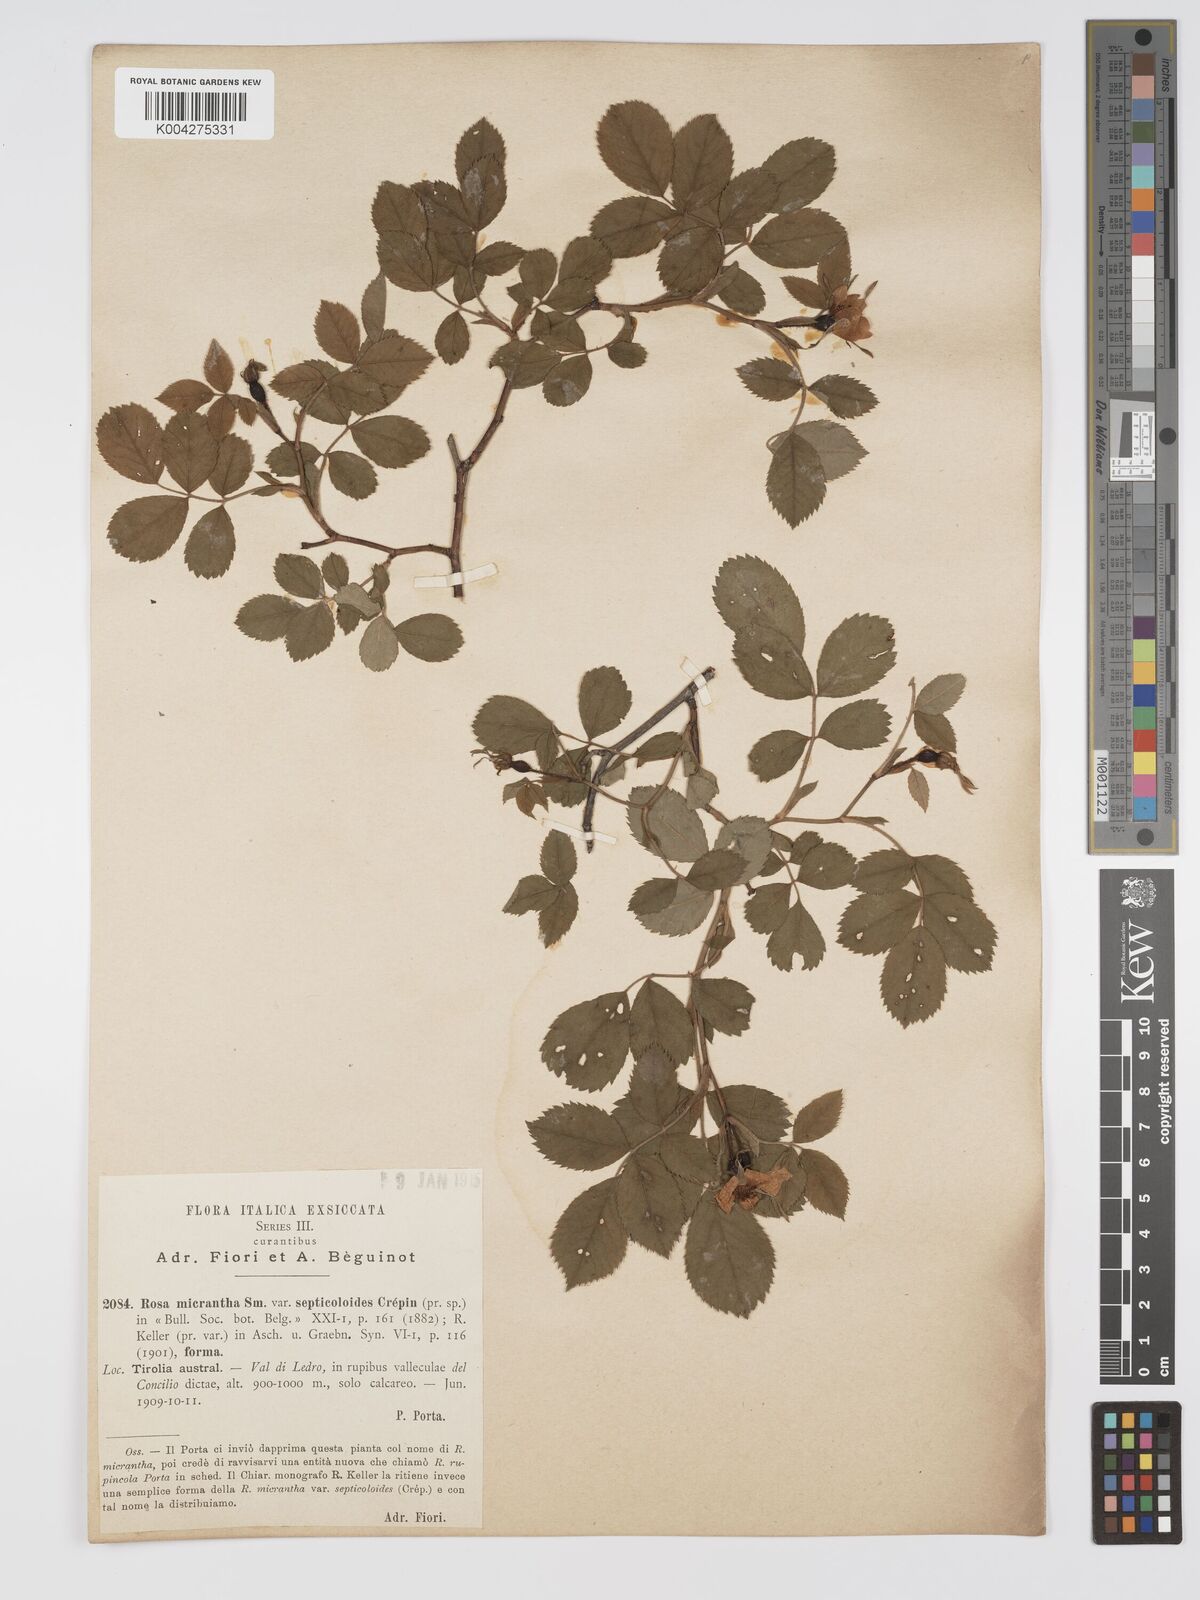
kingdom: Plantae
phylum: Tracheophyta
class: Magnoliopsida
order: Rosales
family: Rosaceae
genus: Rosa
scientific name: Rosa
